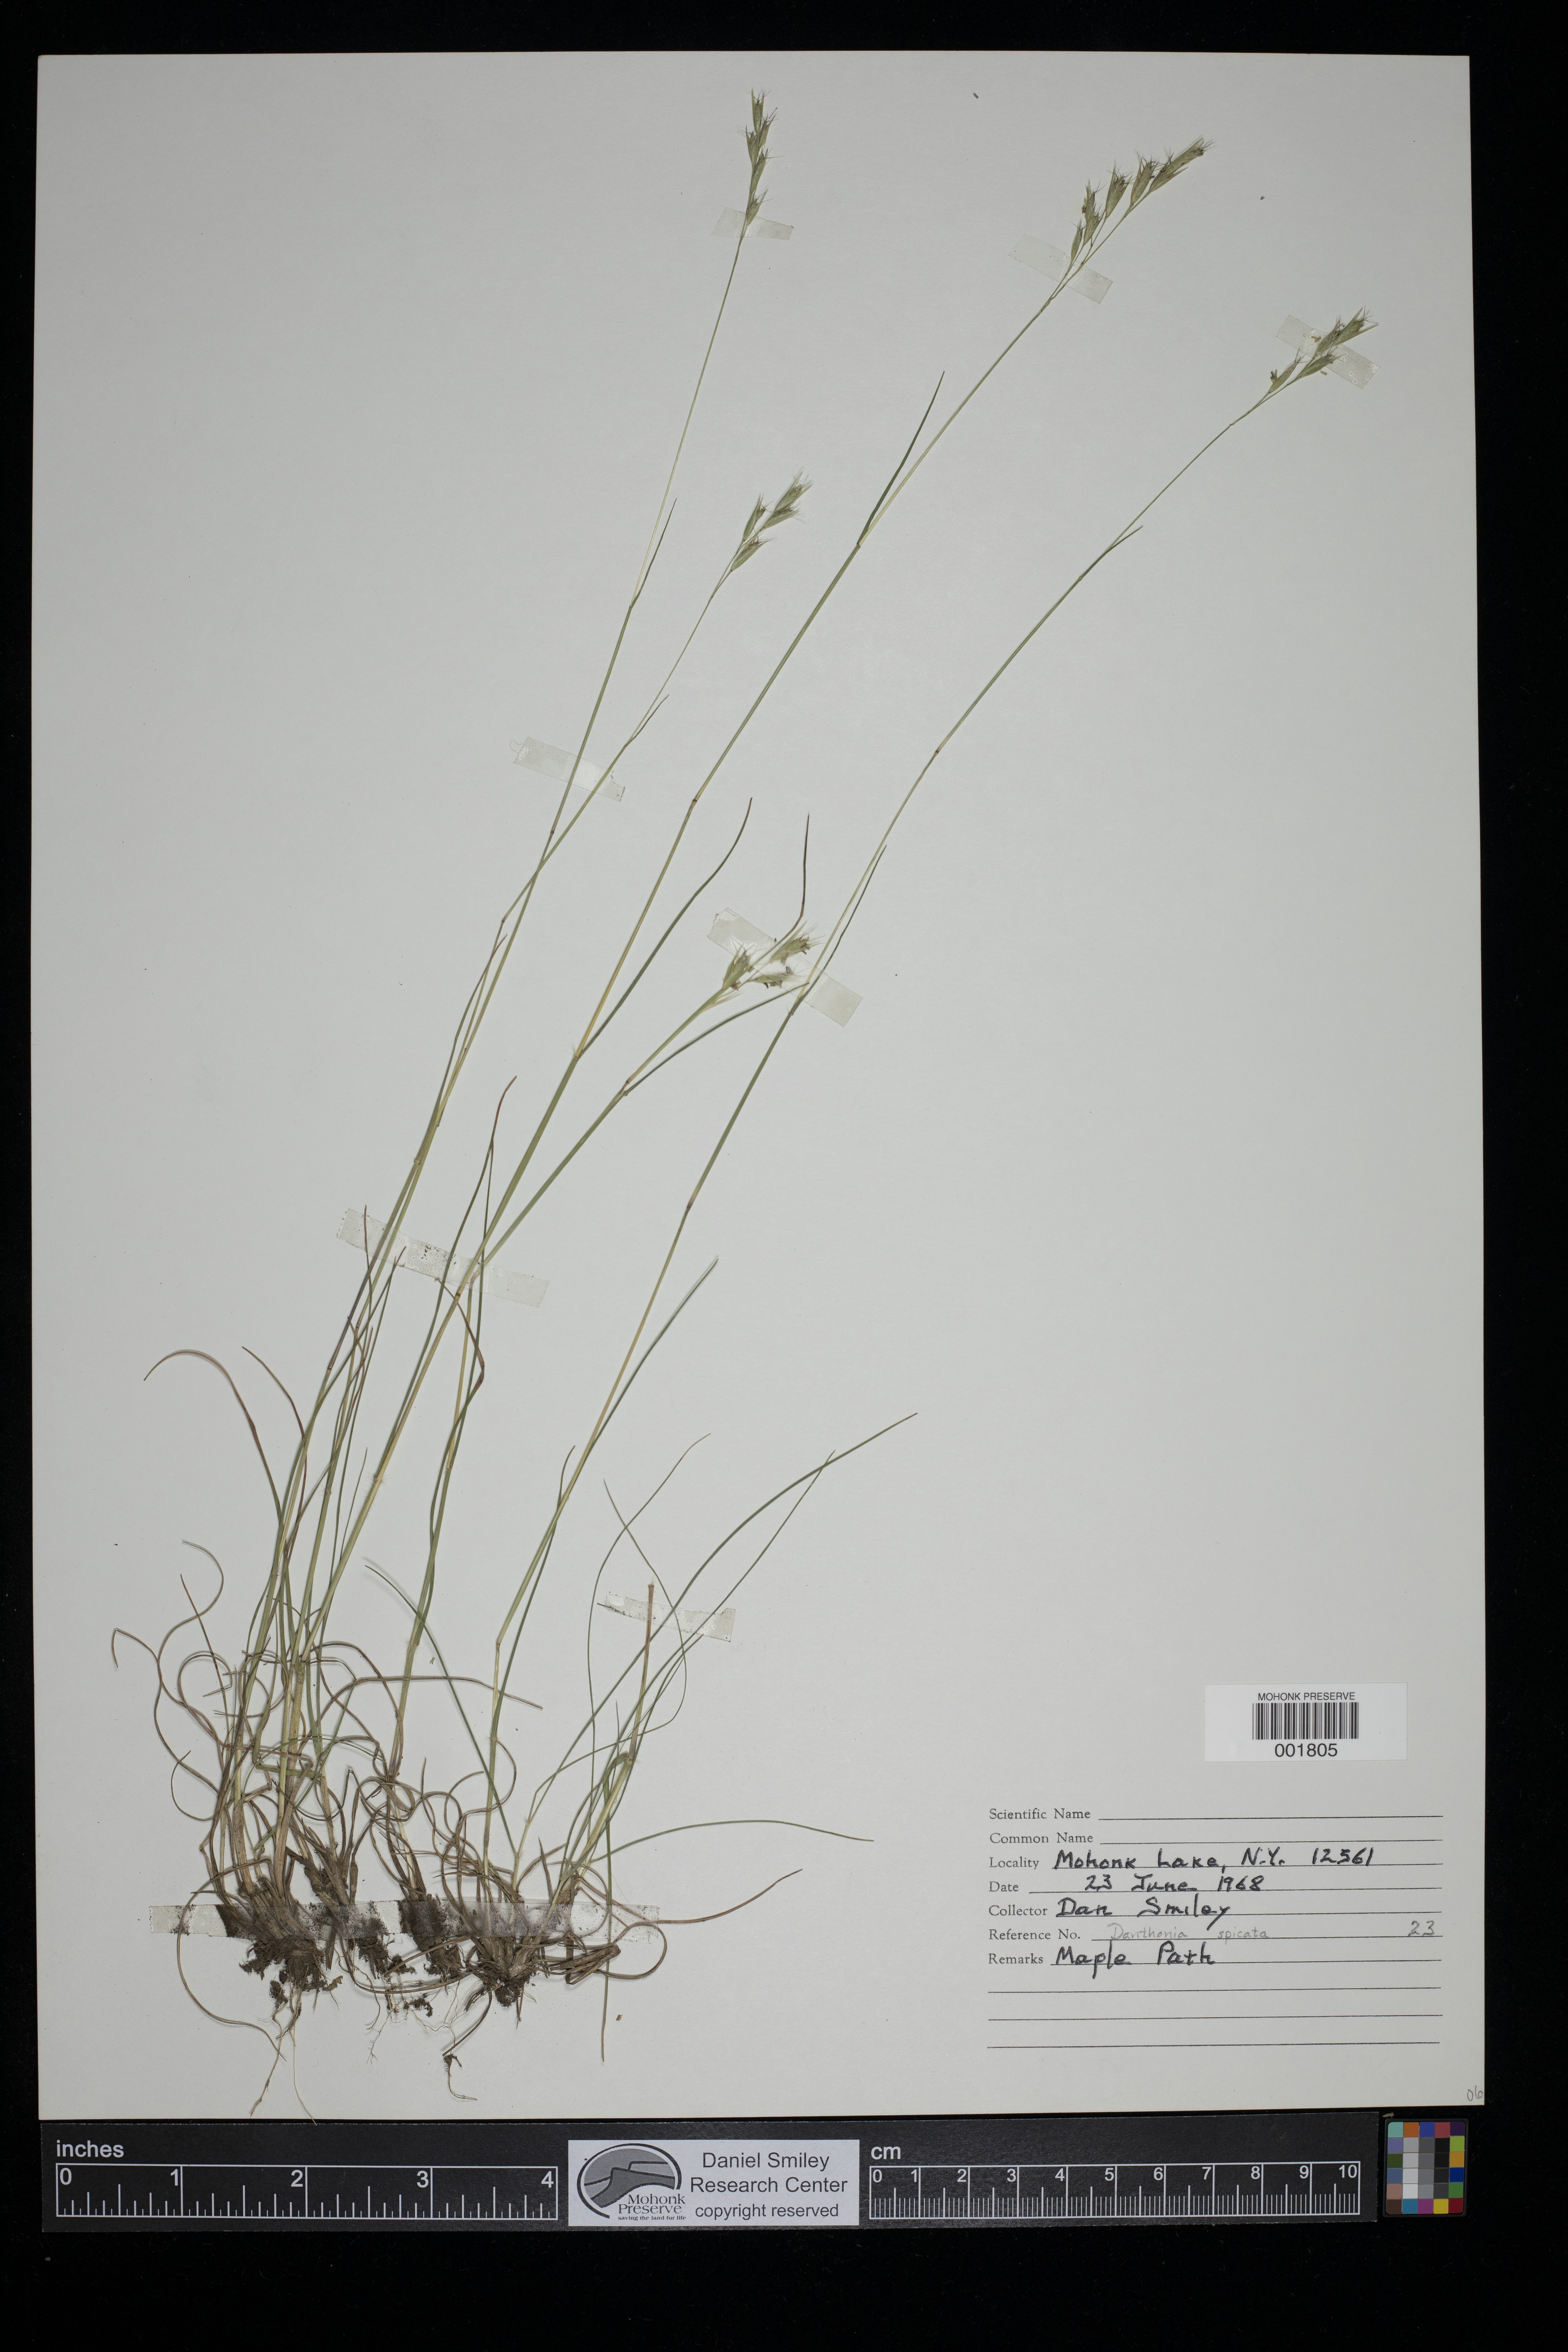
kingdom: Plantae
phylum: Tracheophyta
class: Liliopsida
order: Poales
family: Poaceae
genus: Danthonia
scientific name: Danthonia spicata
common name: Common wild oatgrass
